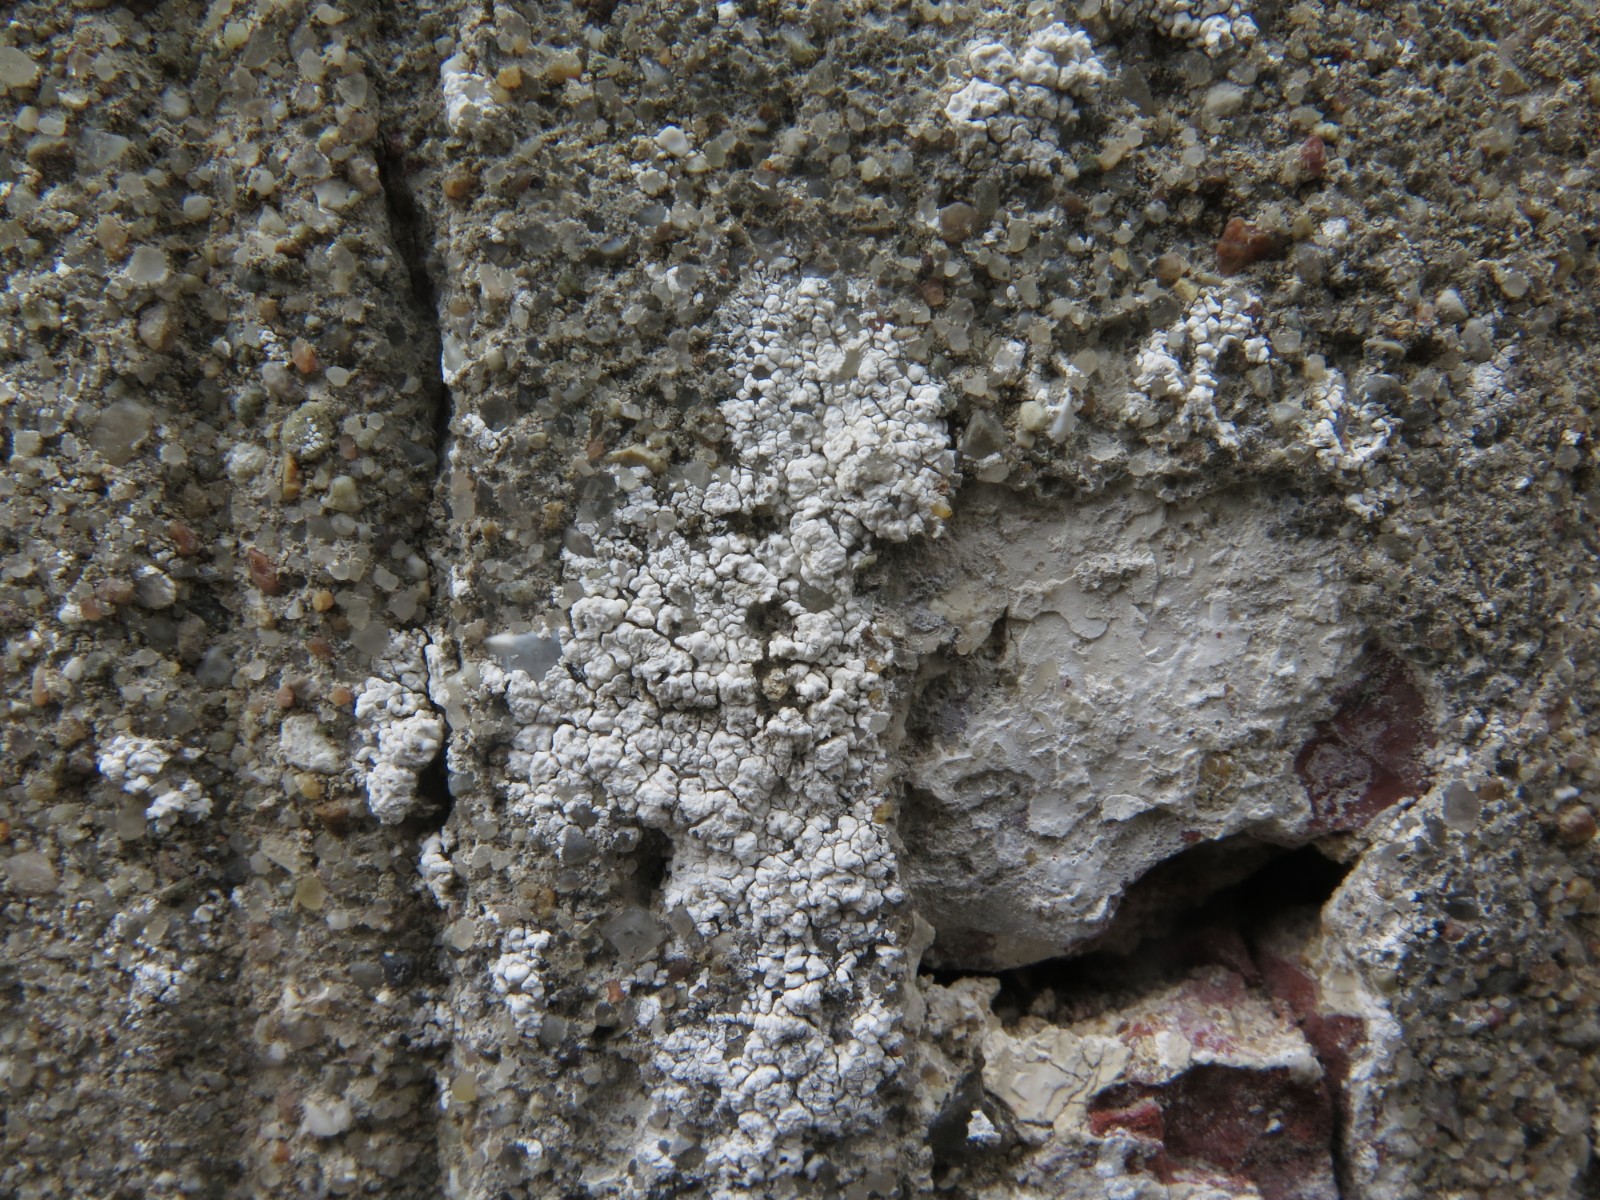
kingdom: Fungi
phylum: Ascomycota
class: Lecanoromycetes
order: Lecanorales
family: Lecanoraceae
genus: Polyozosia
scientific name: Polyozosia albescens
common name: cement-kantskivelav
